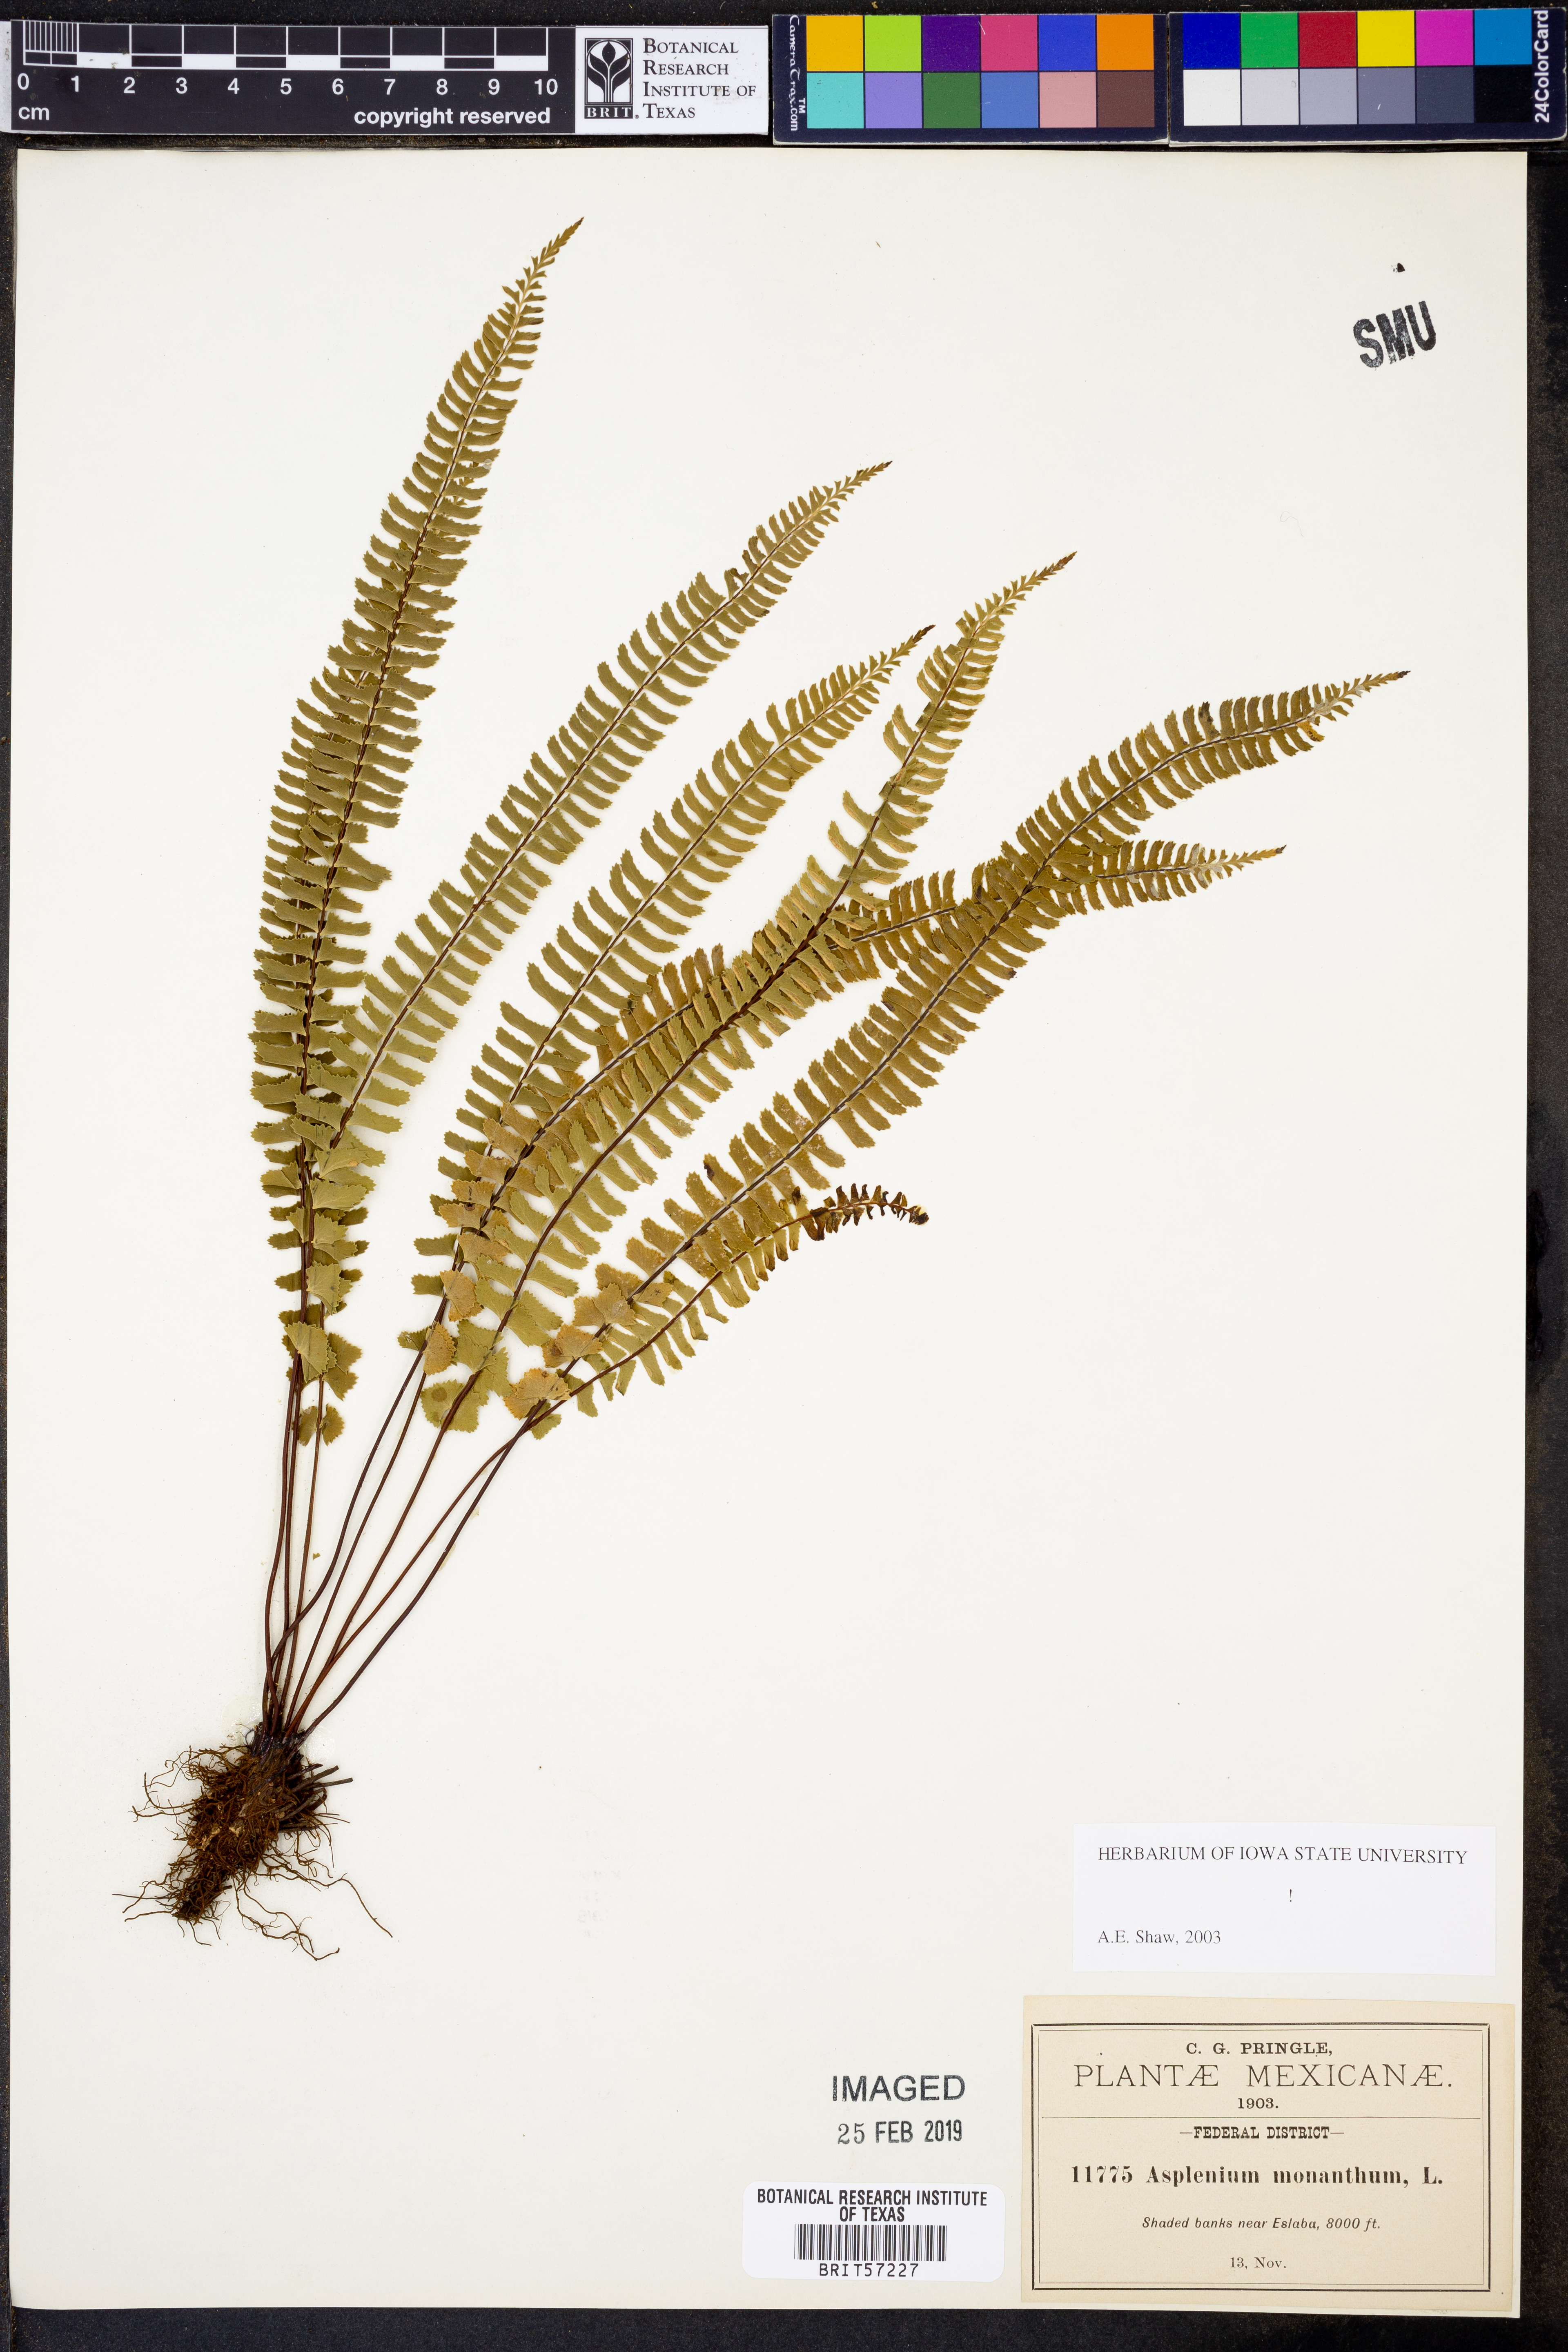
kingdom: Plantae
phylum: Tracheophyta
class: Polypodiopsida
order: Polypodiales
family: Aspleniaceae
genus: Asplenium
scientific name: Asplenium monanthes
